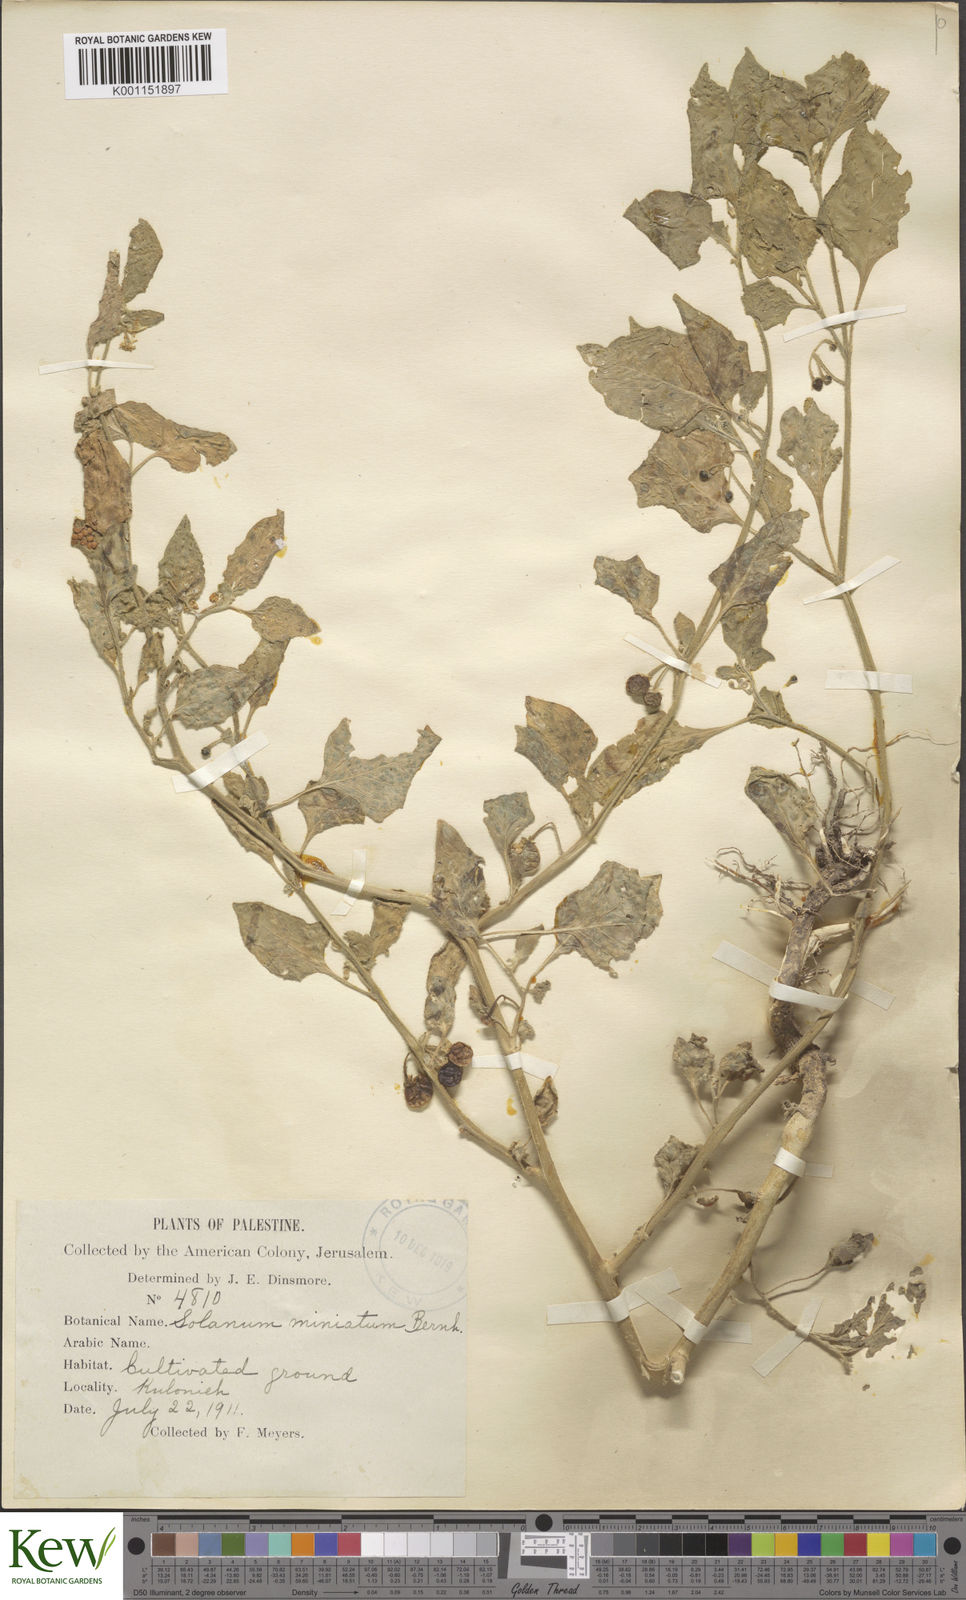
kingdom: Plantae
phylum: Tracheophyta
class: Magnoliopsida
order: Solanales
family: Solanaceae
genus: Solanum
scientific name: Solanum villosum
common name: Red nightshade
